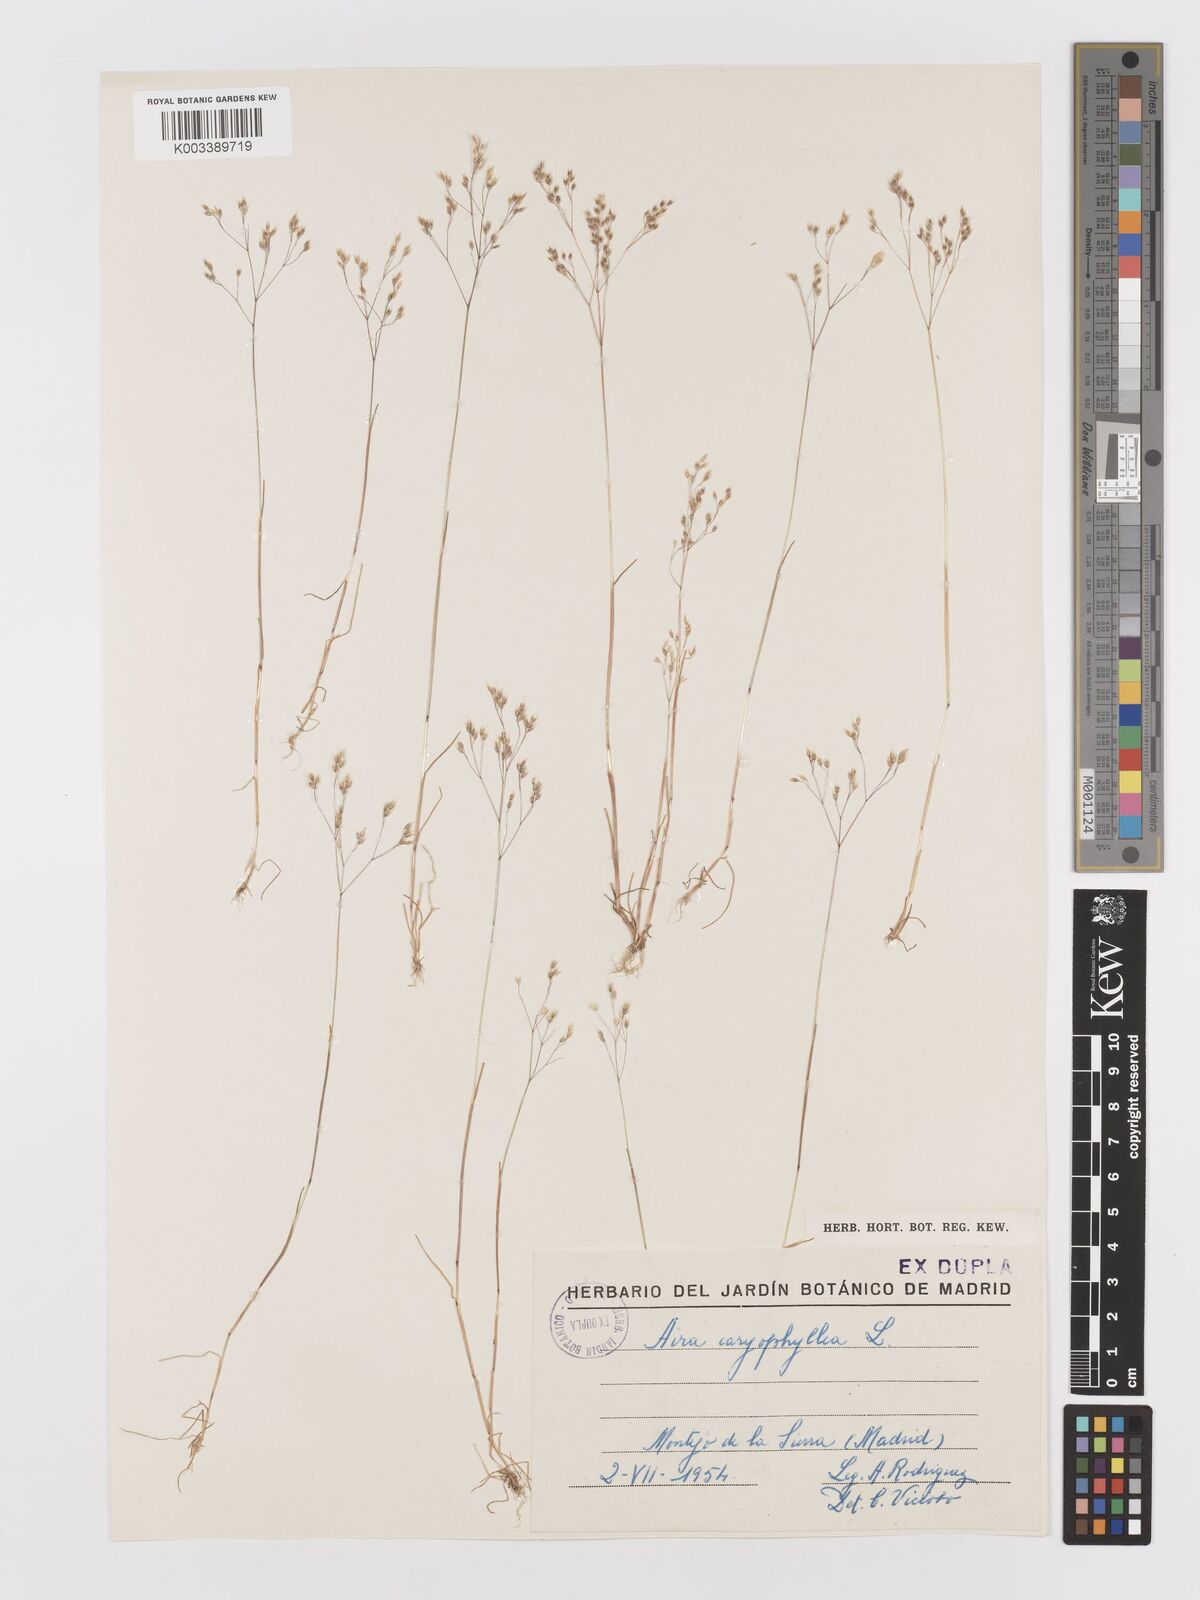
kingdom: Plantae
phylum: Tracheophyta
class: Liliopsida
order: Poales
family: Poaceae
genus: Aira
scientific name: Aira caryophyllea
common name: Silver hairgrass
